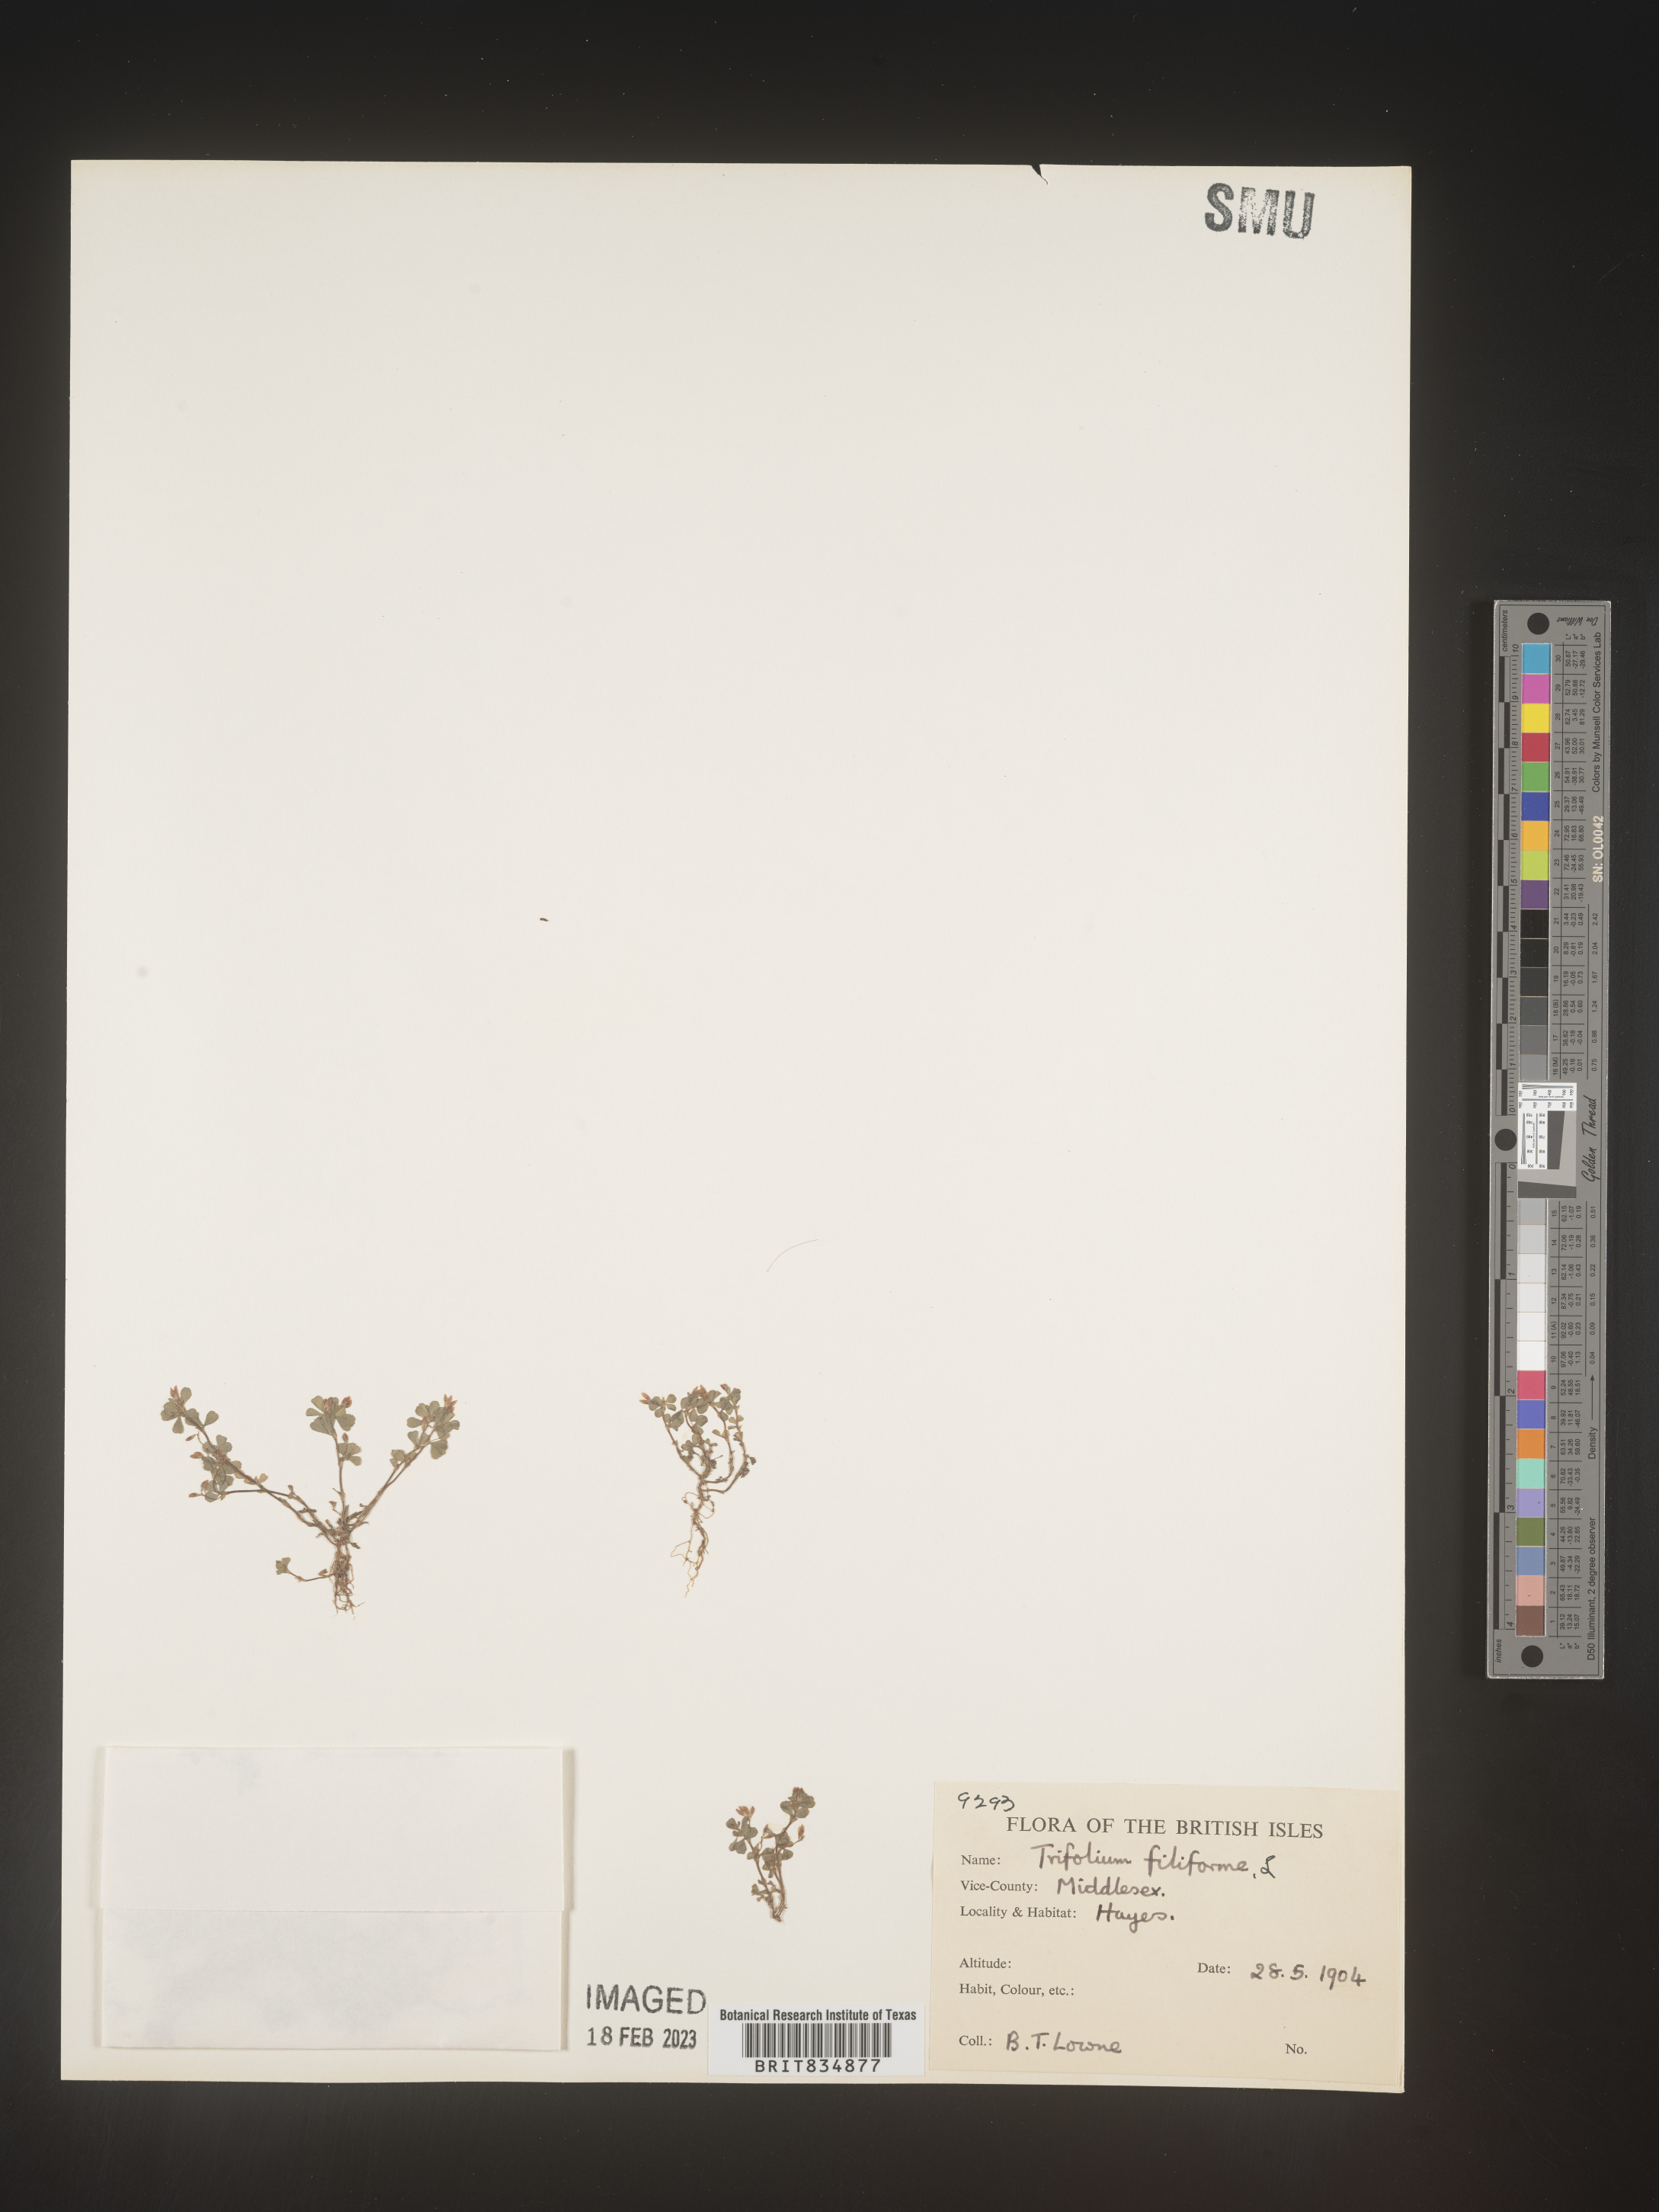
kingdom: Plantae
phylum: Tracheophyta
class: Magnoliopsida
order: Fabales
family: Fabaceae
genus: Trifolium
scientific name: Trifolium
